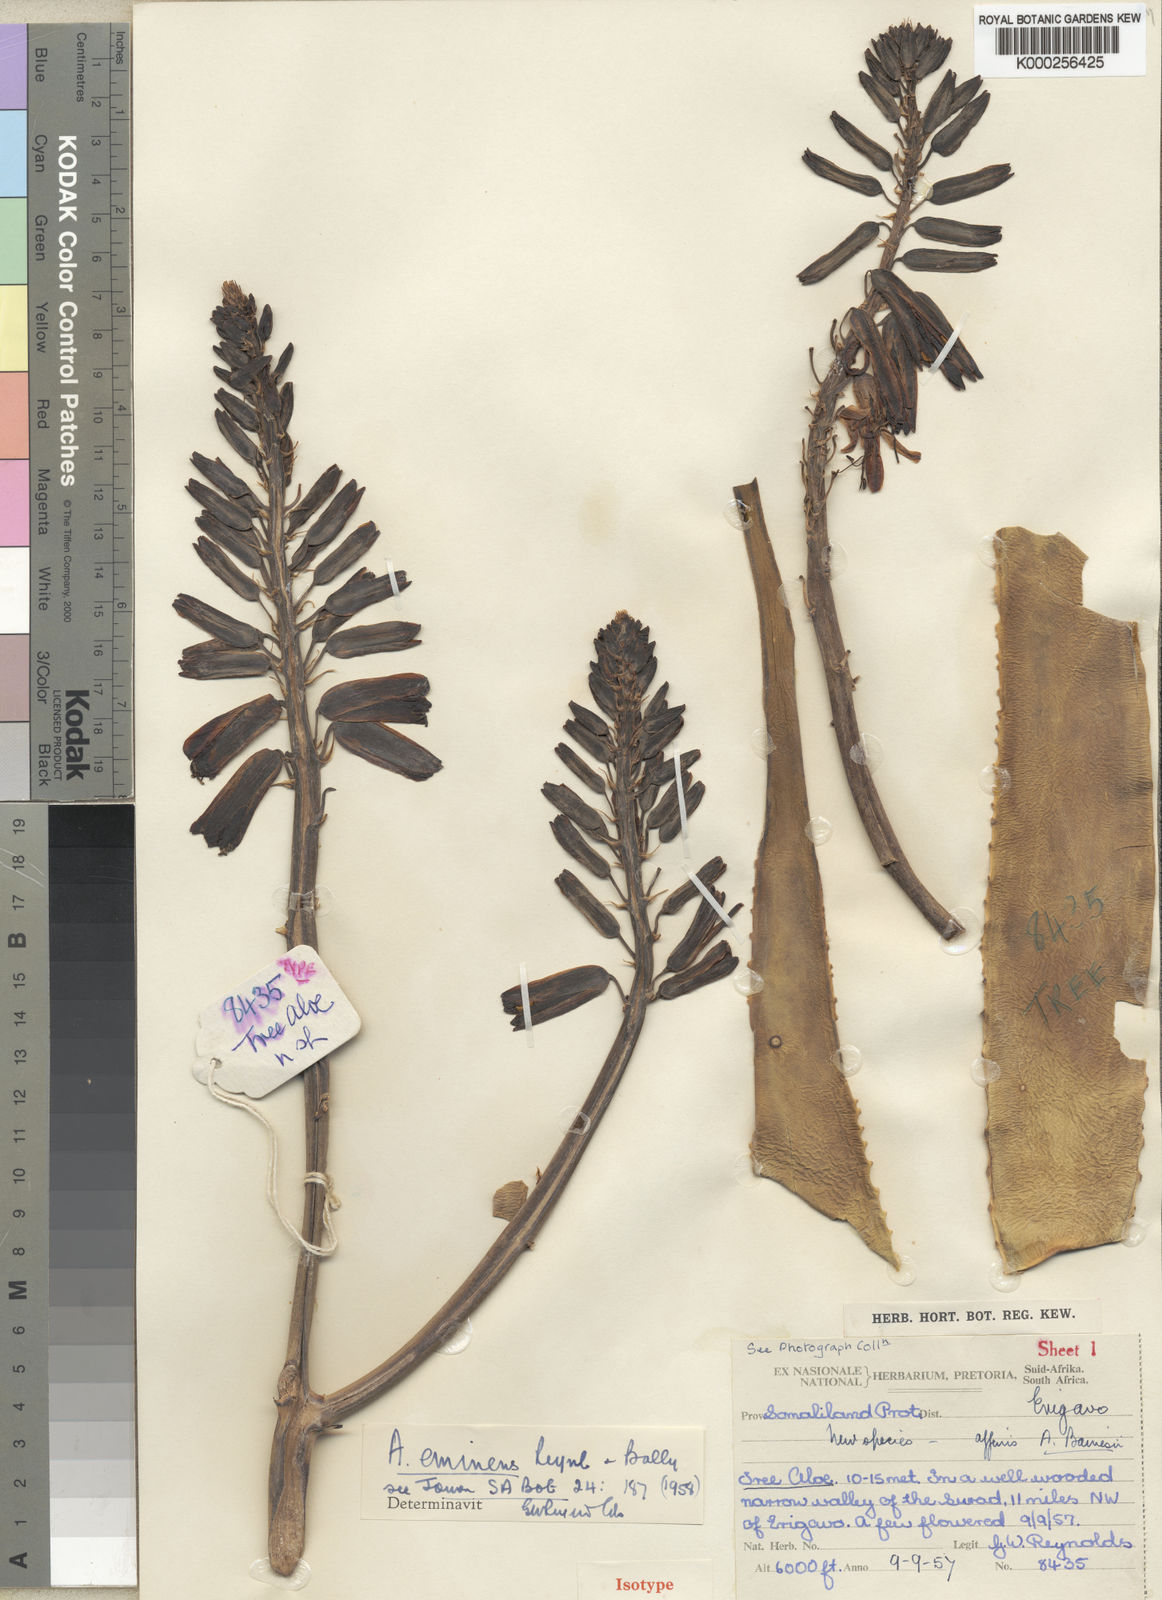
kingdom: Plantae
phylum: Tracheophyta
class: Liliopsida
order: Asparagales
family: Asphodelaceae
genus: Aloidendron
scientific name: Aloidendron eminens
